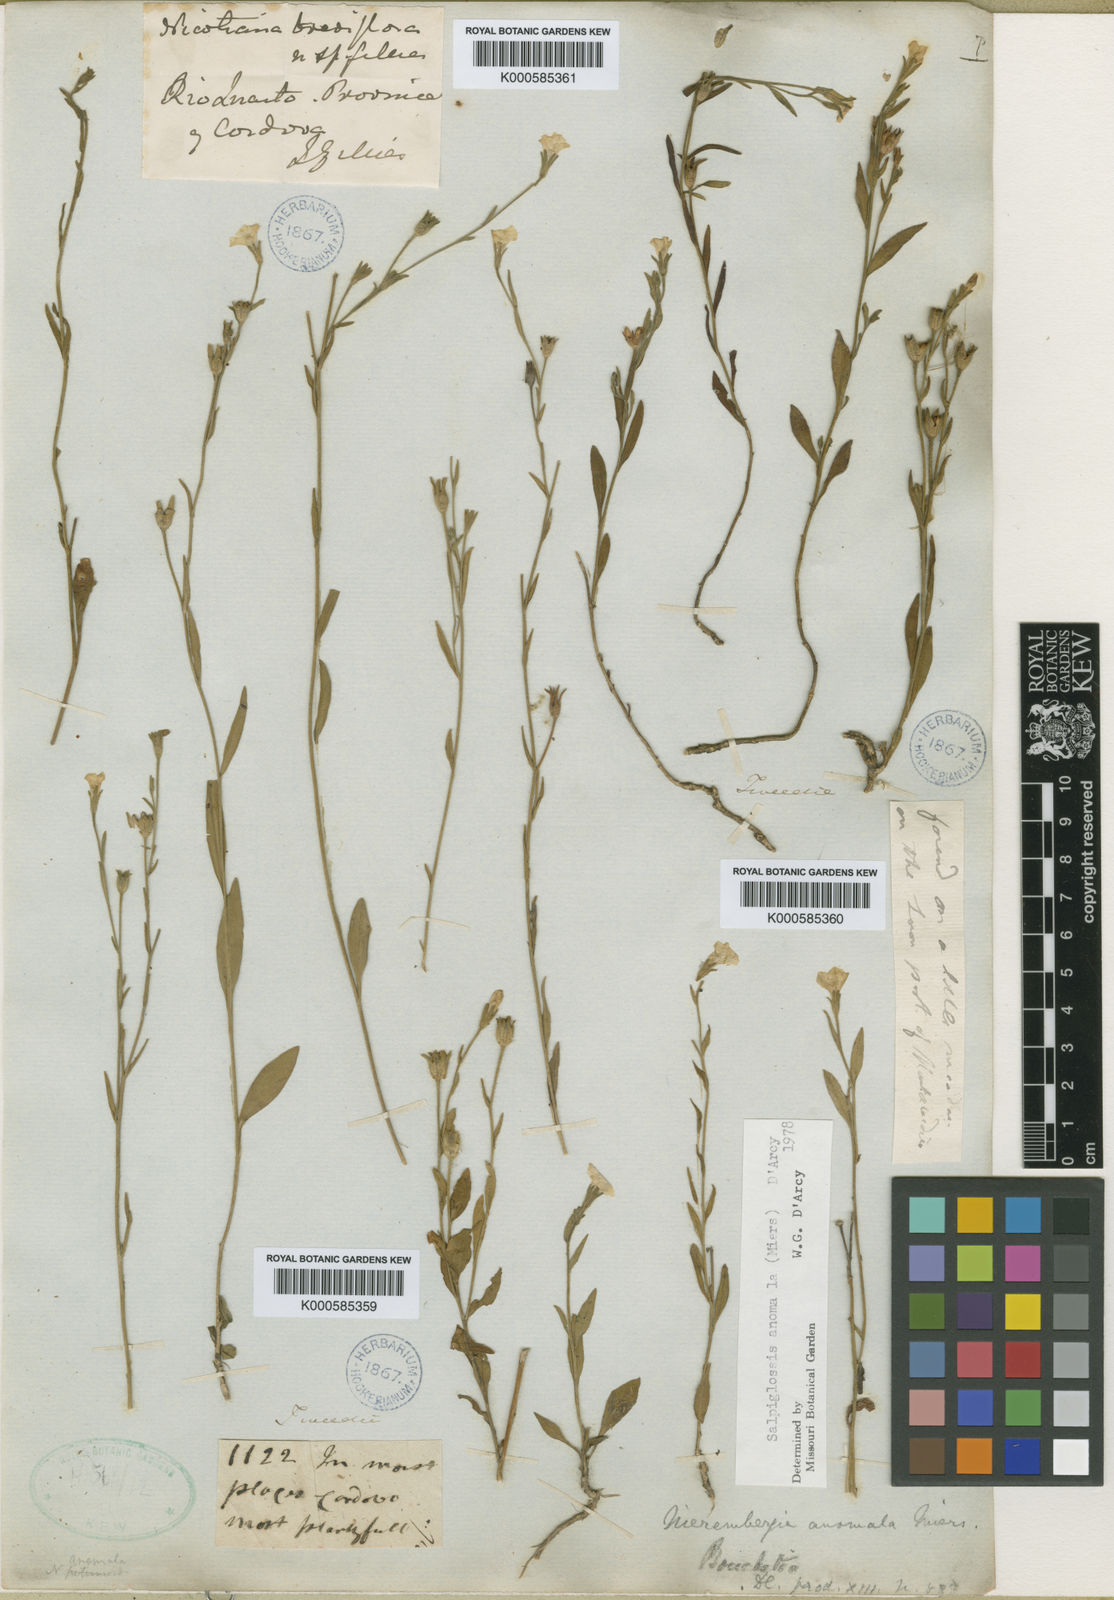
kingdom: Plantae
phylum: Tracheophyta
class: Magnoliopsida
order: Solanales
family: Solanaceae
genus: Salpiglossis
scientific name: Salpiglossis anomala
